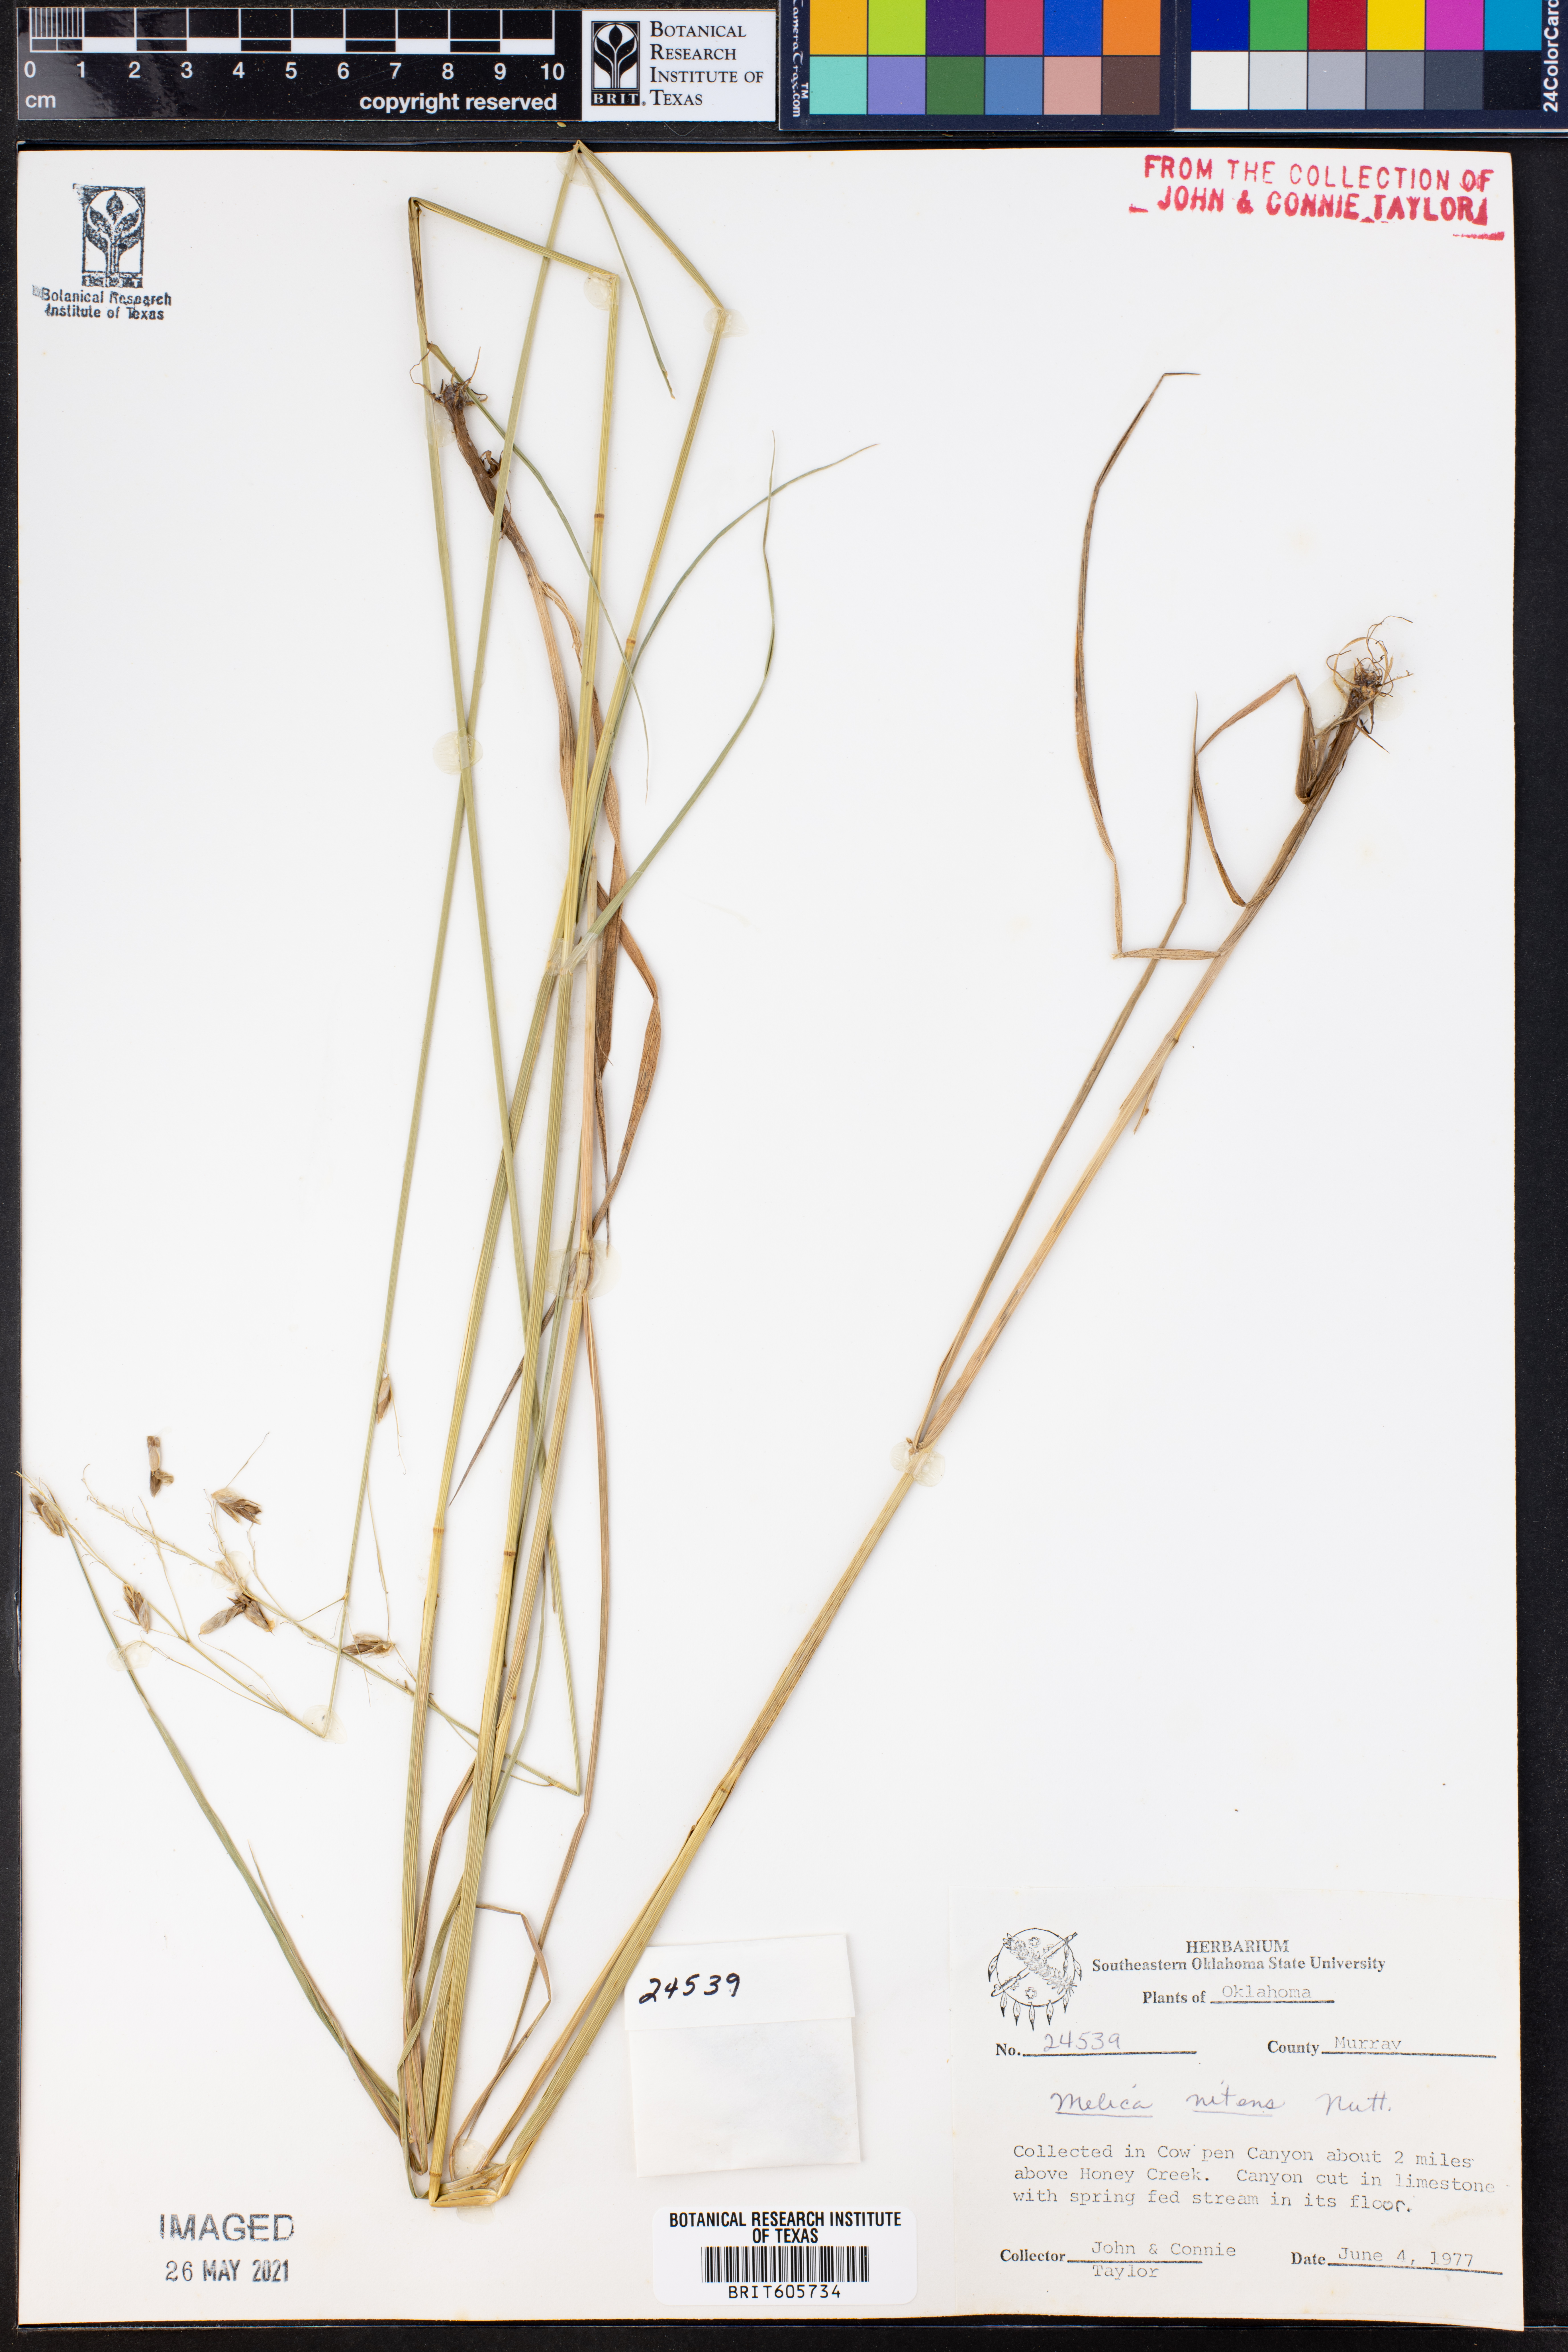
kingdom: Plantae
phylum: Tracheophyta
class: Liliopsida
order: Poales
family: Poaceae
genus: Melica
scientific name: Melica nitens
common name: Three-flower melic
